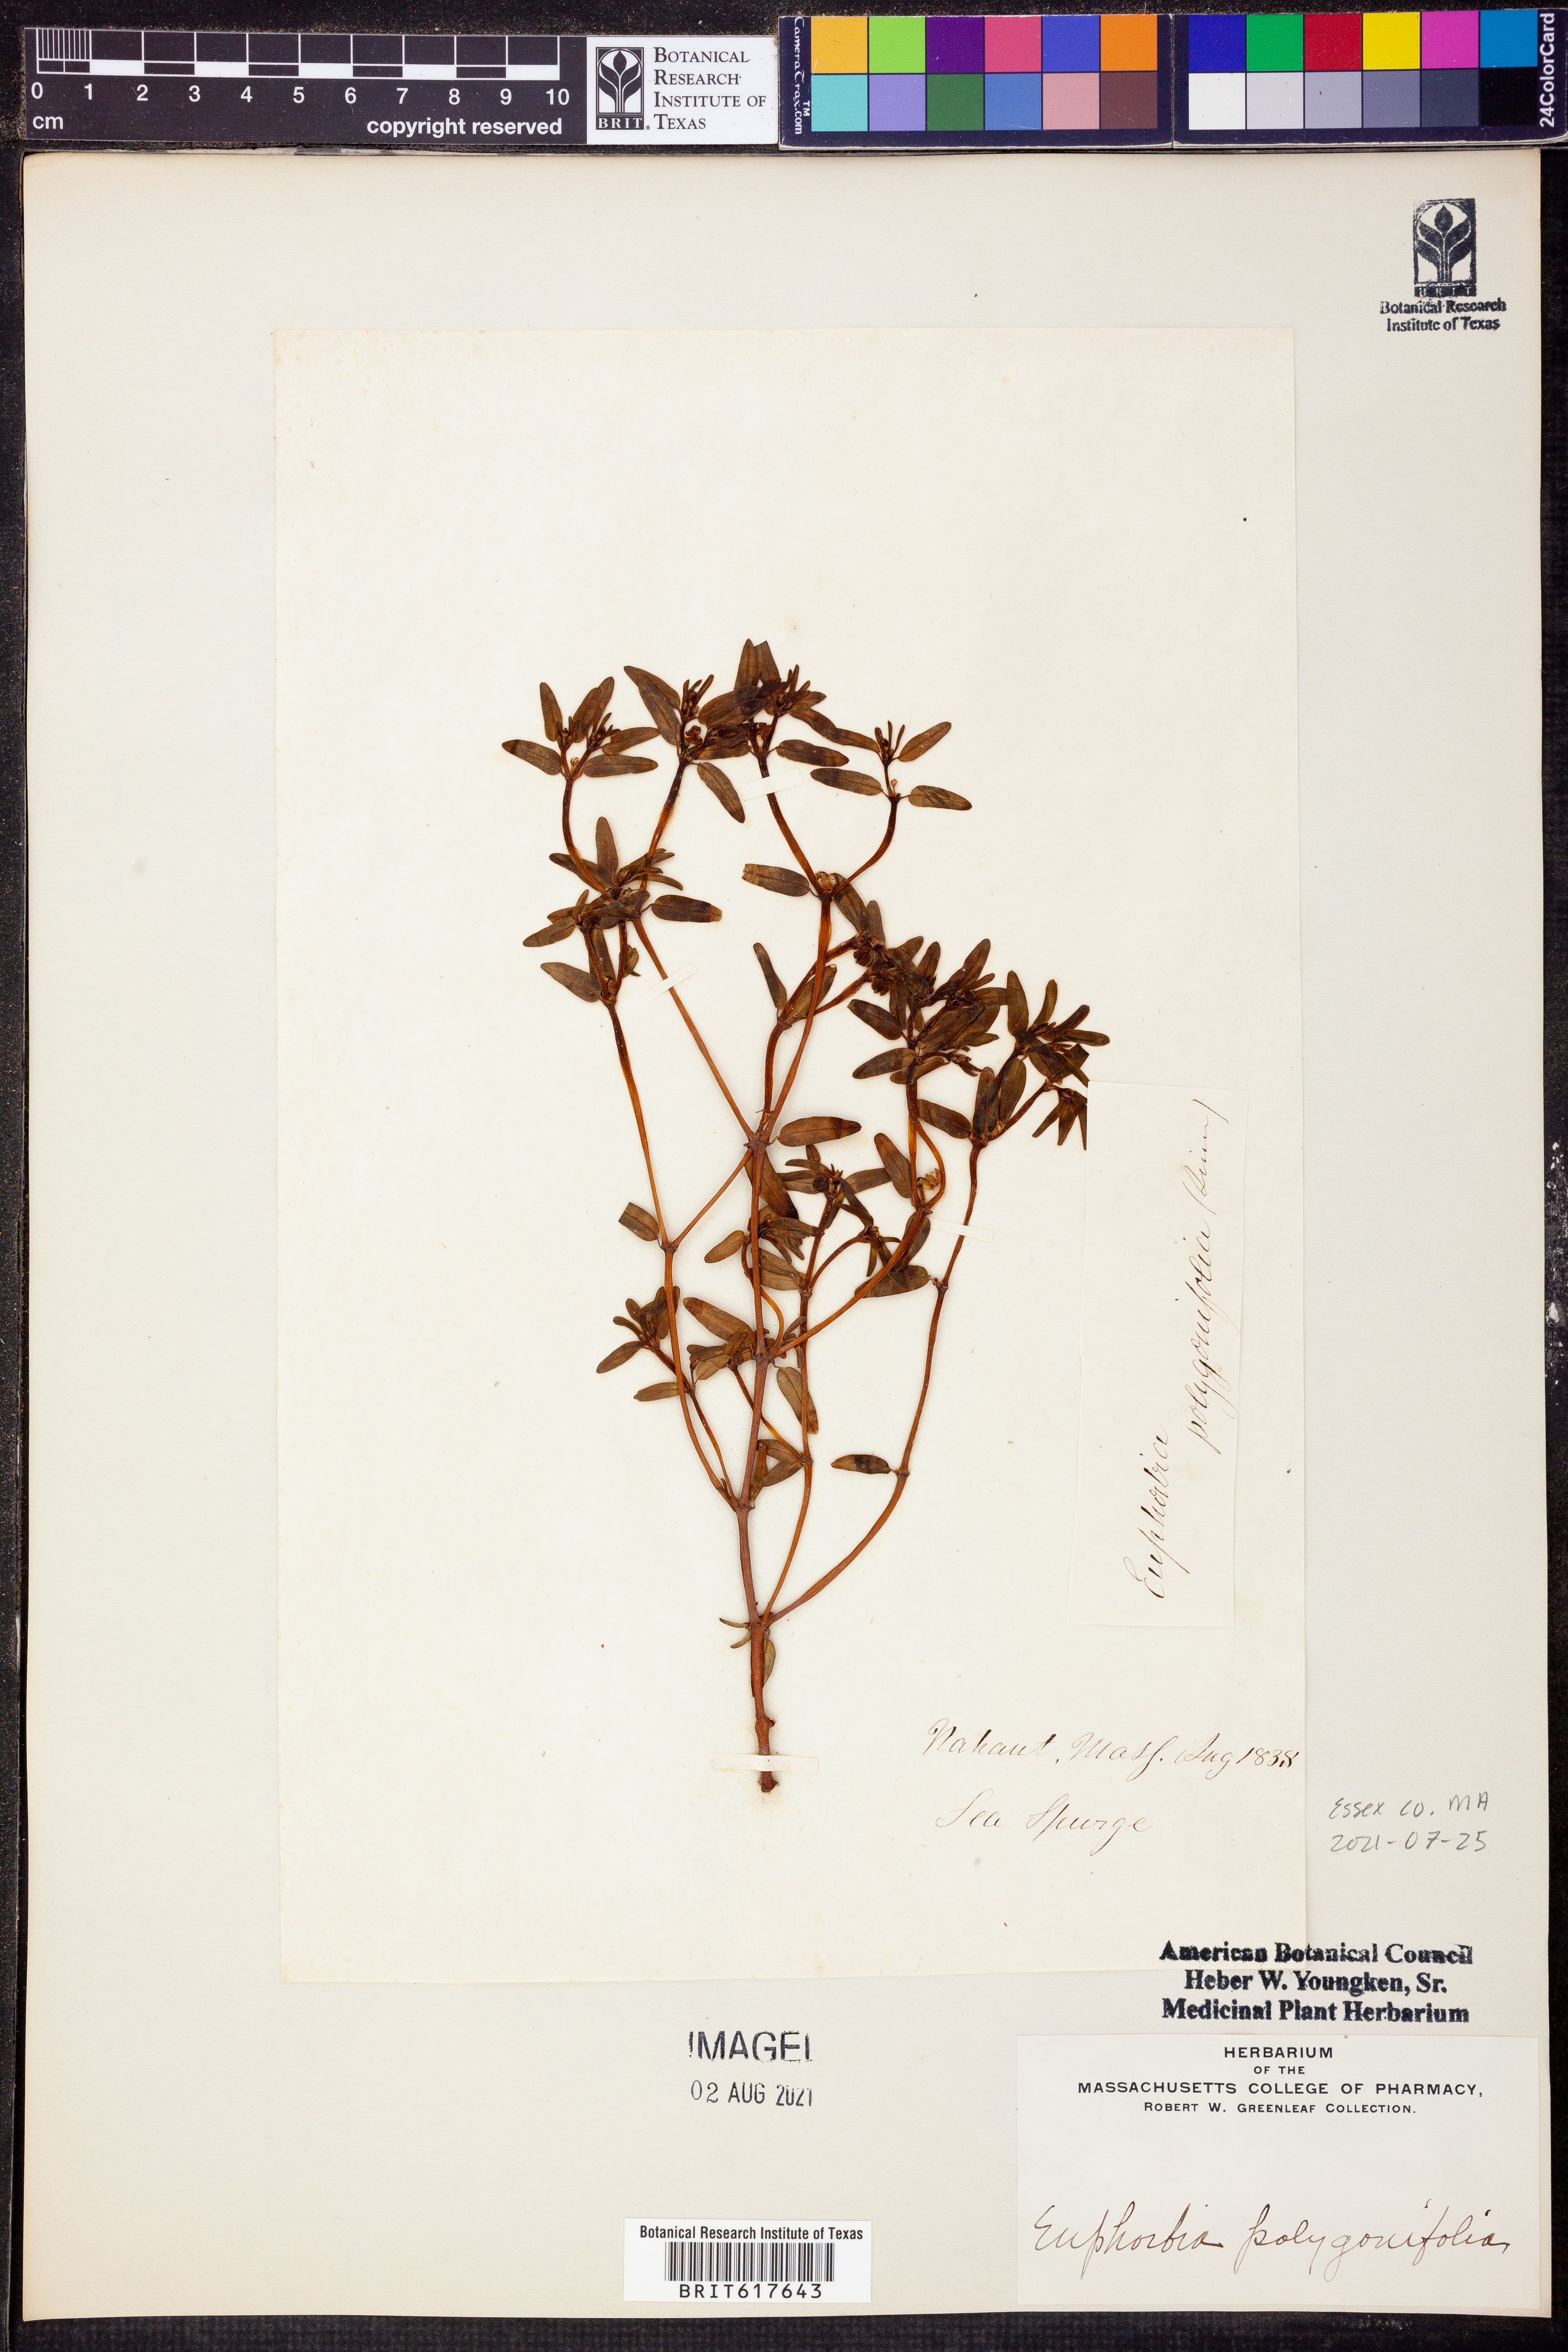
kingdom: Plantae
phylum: Tracheophyta
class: Magnoliopsida
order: Malpighiales
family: Euphorbiaceae
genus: Euphorbia
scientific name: Euphorbia polygonifolia
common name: Knotweed spurge
